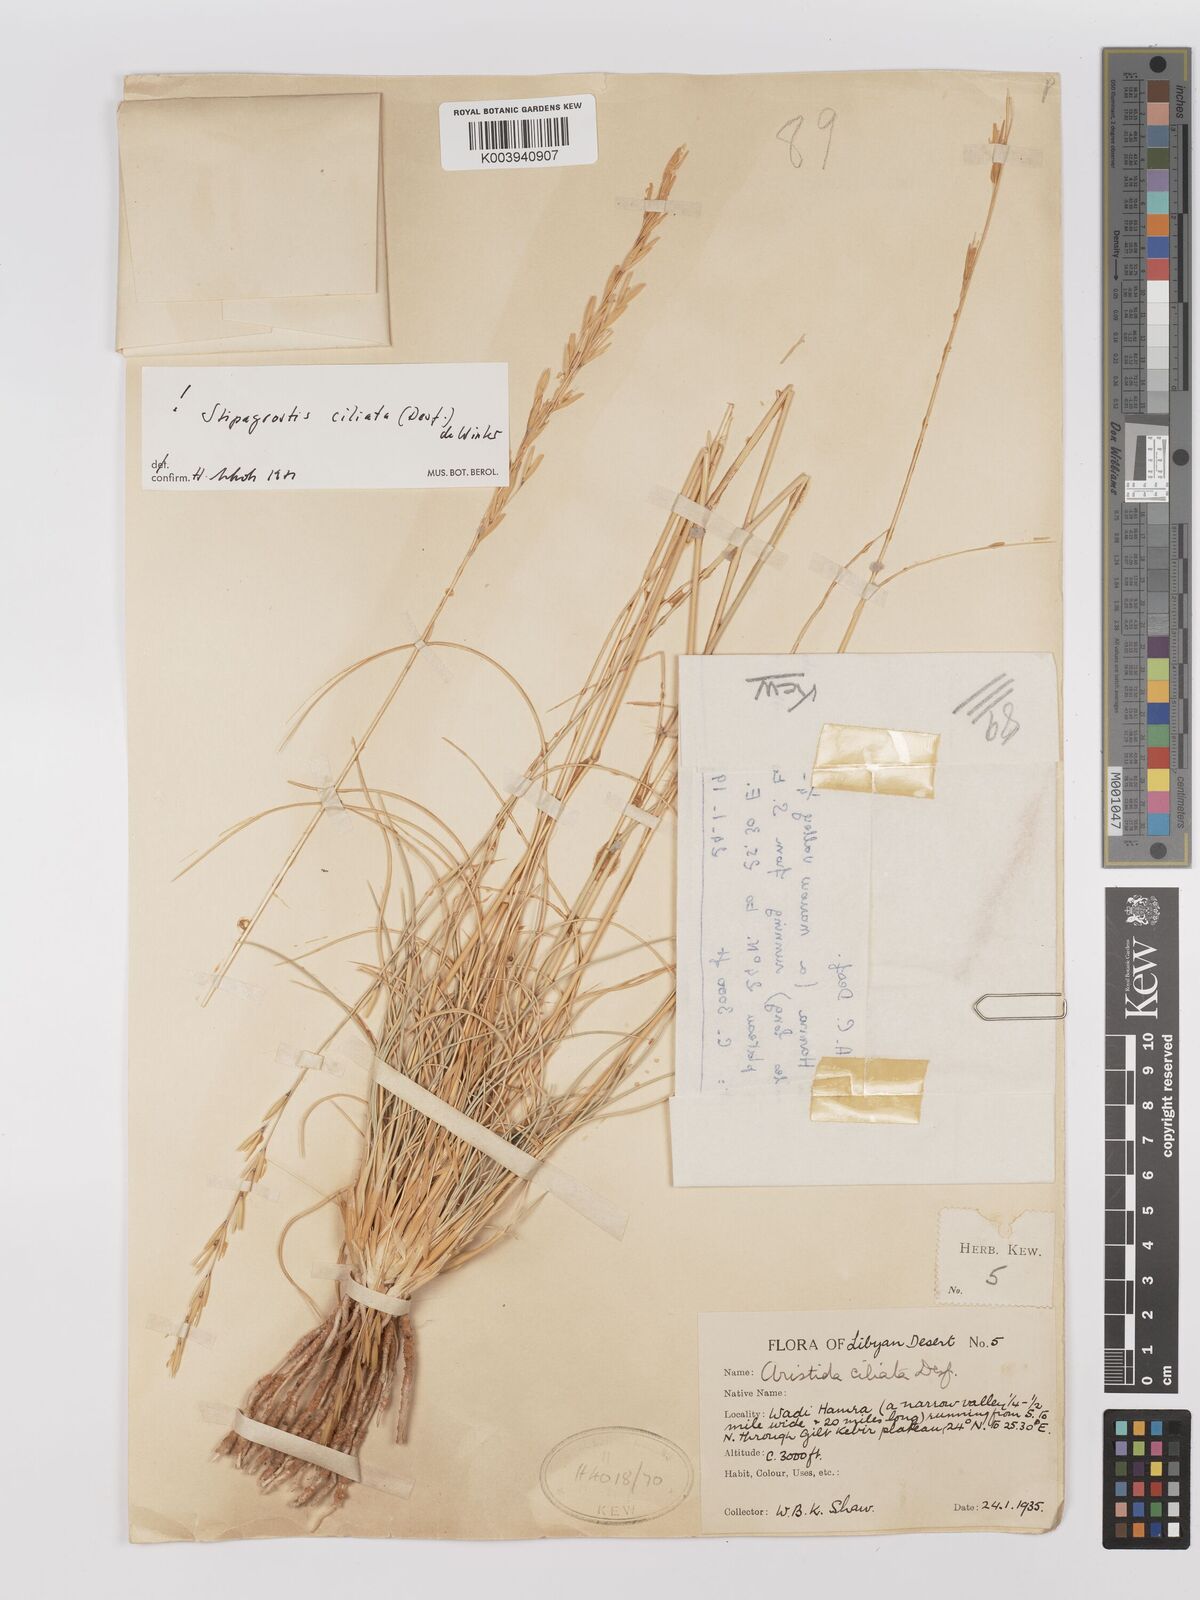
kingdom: Plantae
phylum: Tracheophyta
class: Liliopsida
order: Poales
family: Poaceae
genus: Stipagrostis
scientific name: Stipagrostis ciliata
